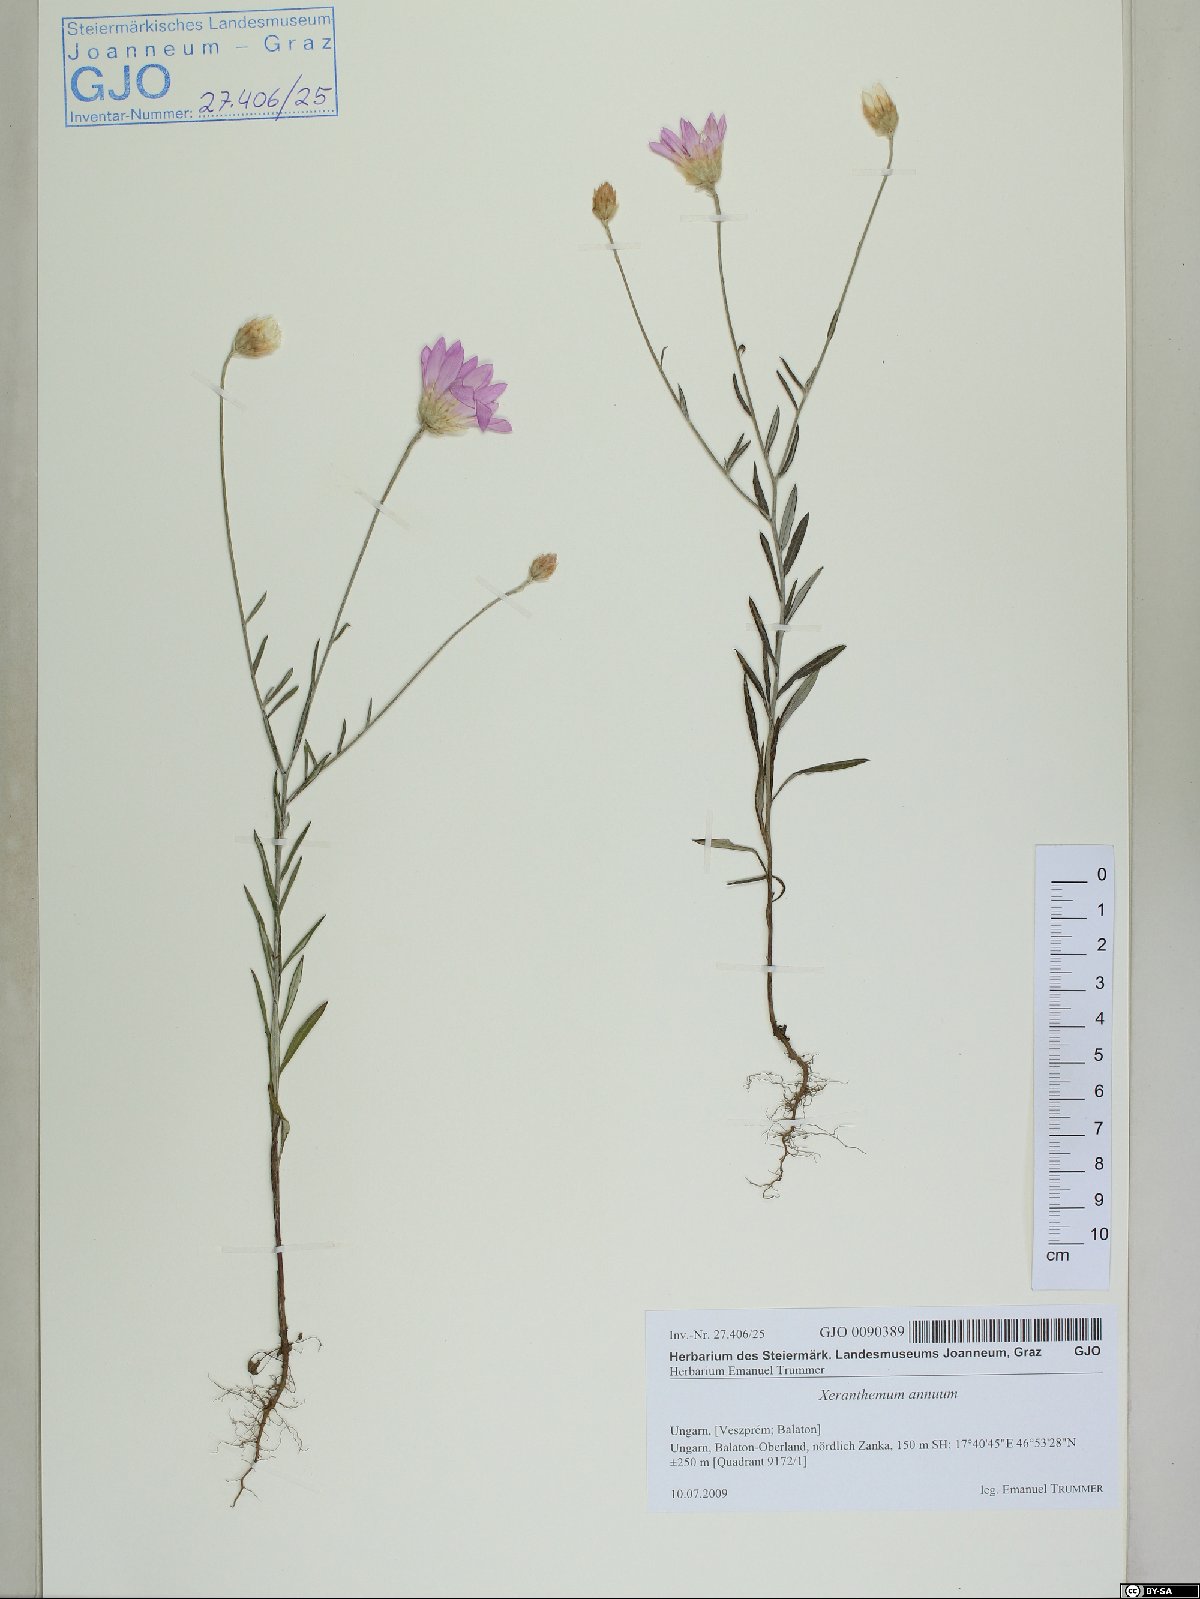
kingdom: Plantae
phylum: Tracheophyta
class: Magnoliopsida
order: Asterales
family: Asteraceae
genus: Xeranthemum
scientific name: Xeranthemum annuum
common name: Immortelle
